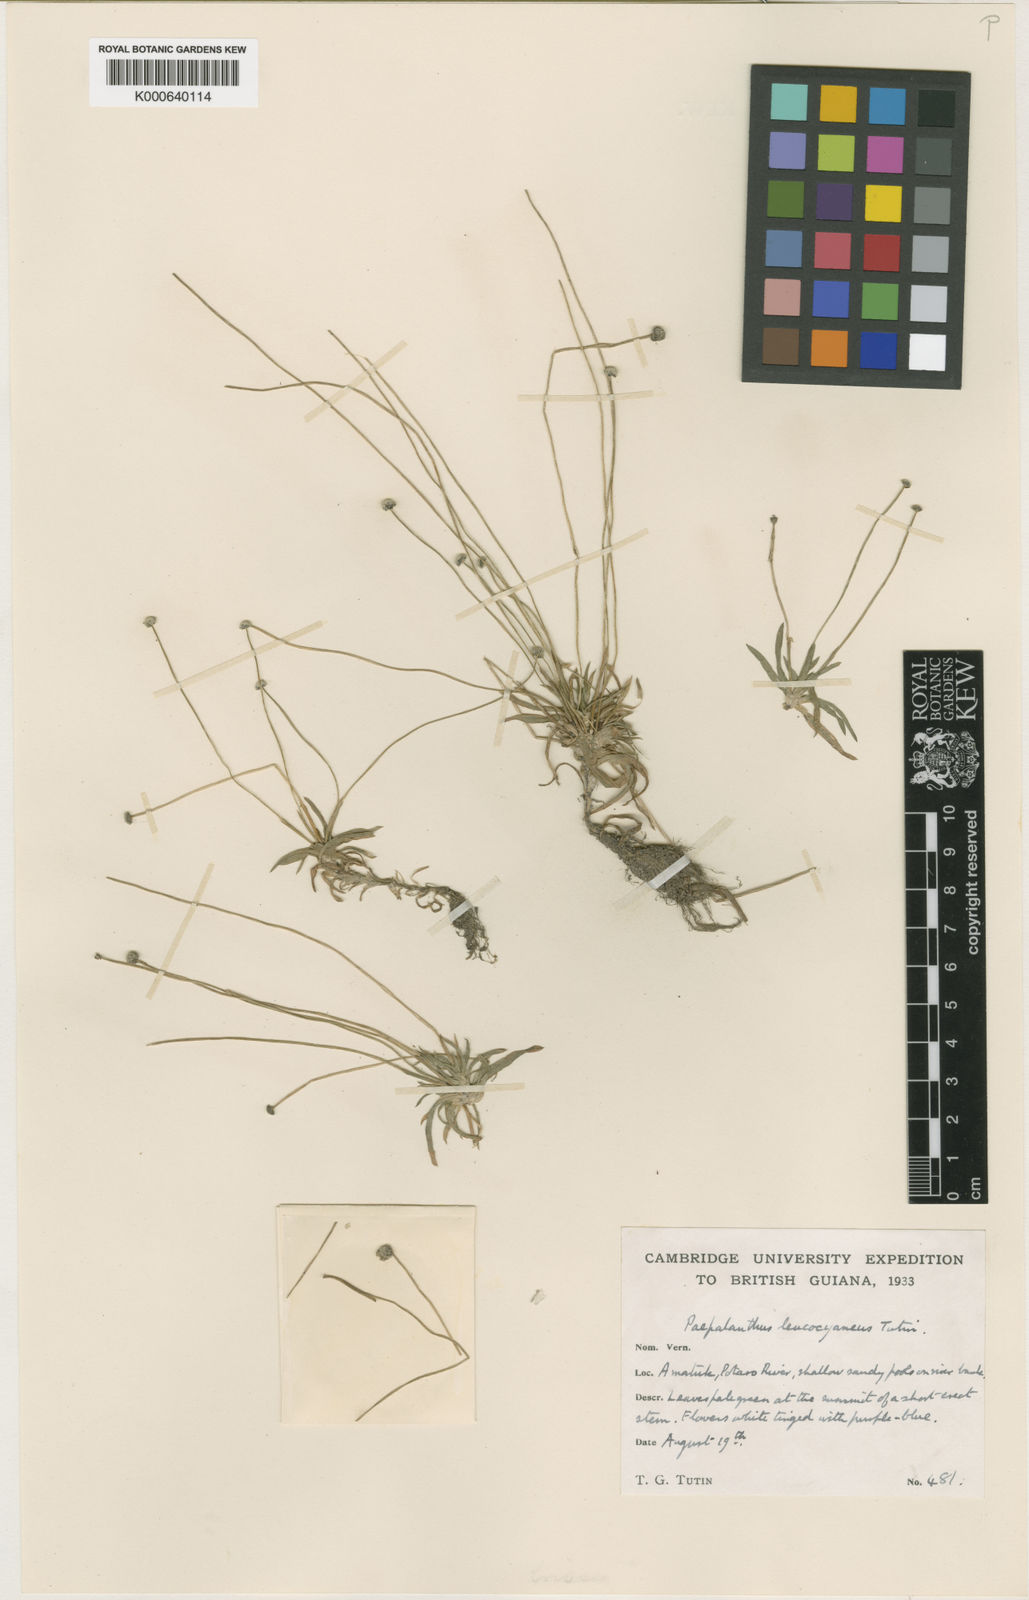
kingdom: Plantae
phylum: Tracheophyta
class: Liliopsida
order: Poales
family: Eriocaulaceae
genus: Paepalanthus
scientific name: Paepalanthus oyapockensis
